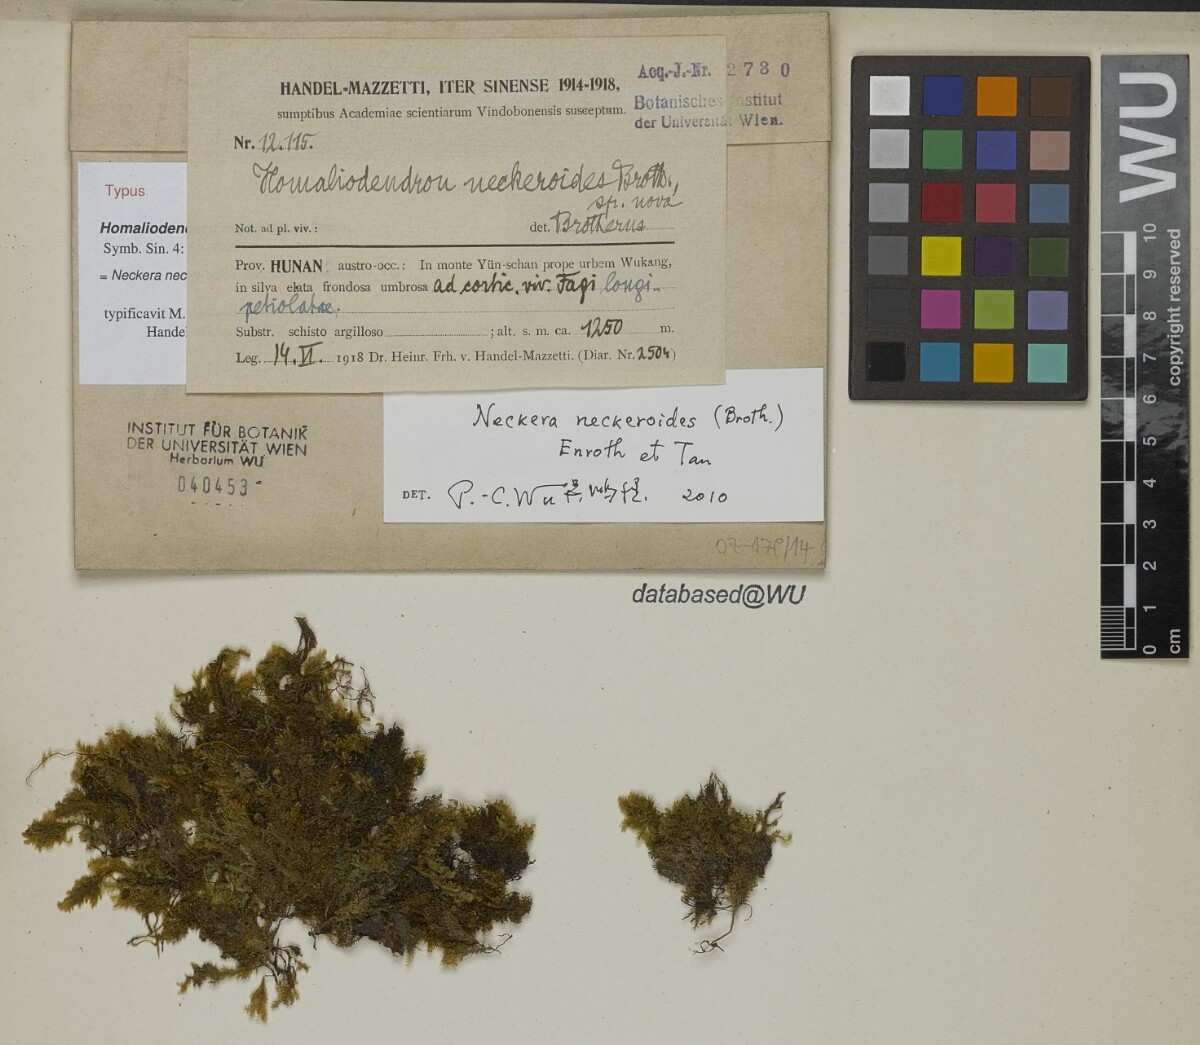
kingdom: Plantae
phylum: Bryophyta
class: Bryopsida
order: Hypnales
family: Neckeraceae
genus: Neckera
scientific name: Neckera neckeroides
